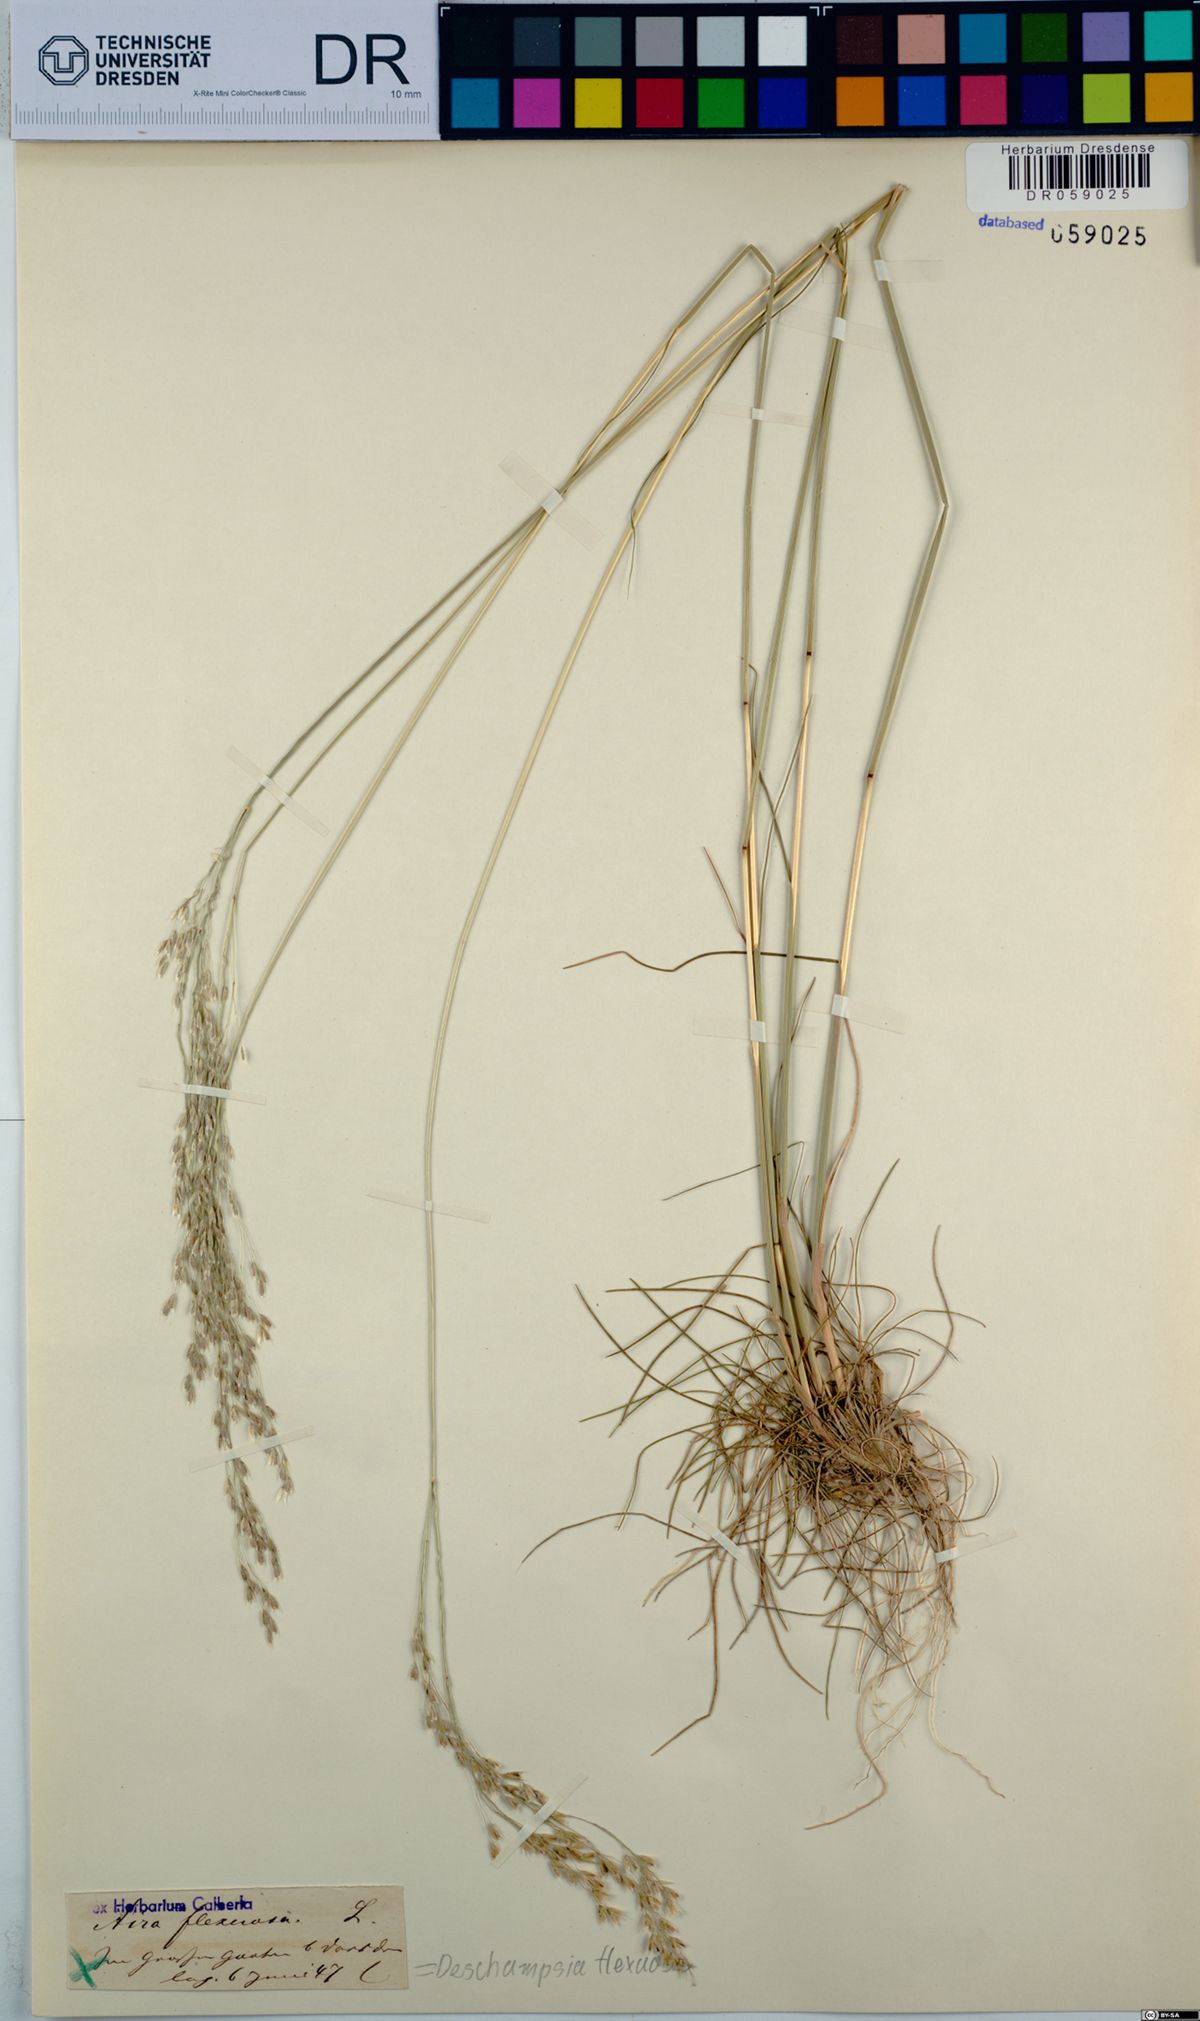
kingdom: Plantae
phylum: Tracheophyta
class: Liliopsida
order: Poales
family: Poaceae
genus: Avenella
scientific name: Avenella flexuosa
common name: Wavy hairgrass
